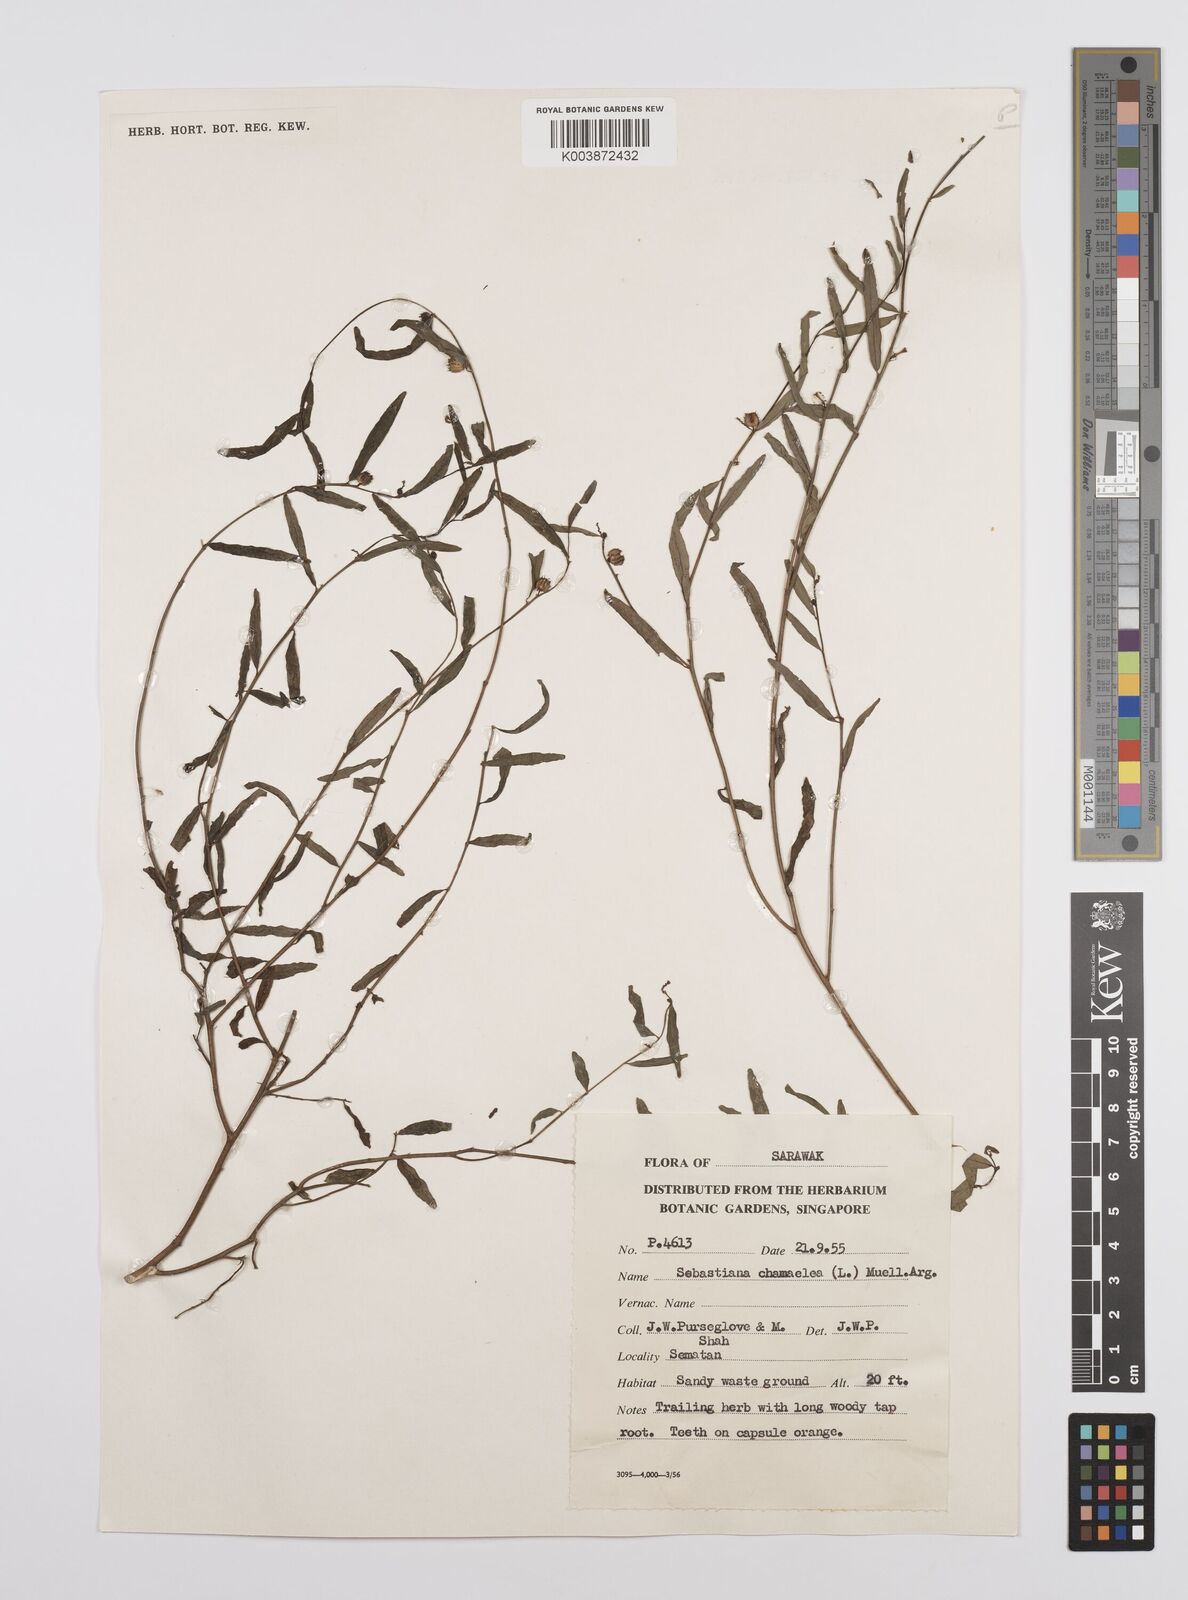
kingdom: Plantae
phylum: Tracheophyta
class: Magnoliopsida
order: Malpighiales
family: Euphorbiaceae
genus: Microstachys
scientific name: Microstachys chamaelea
